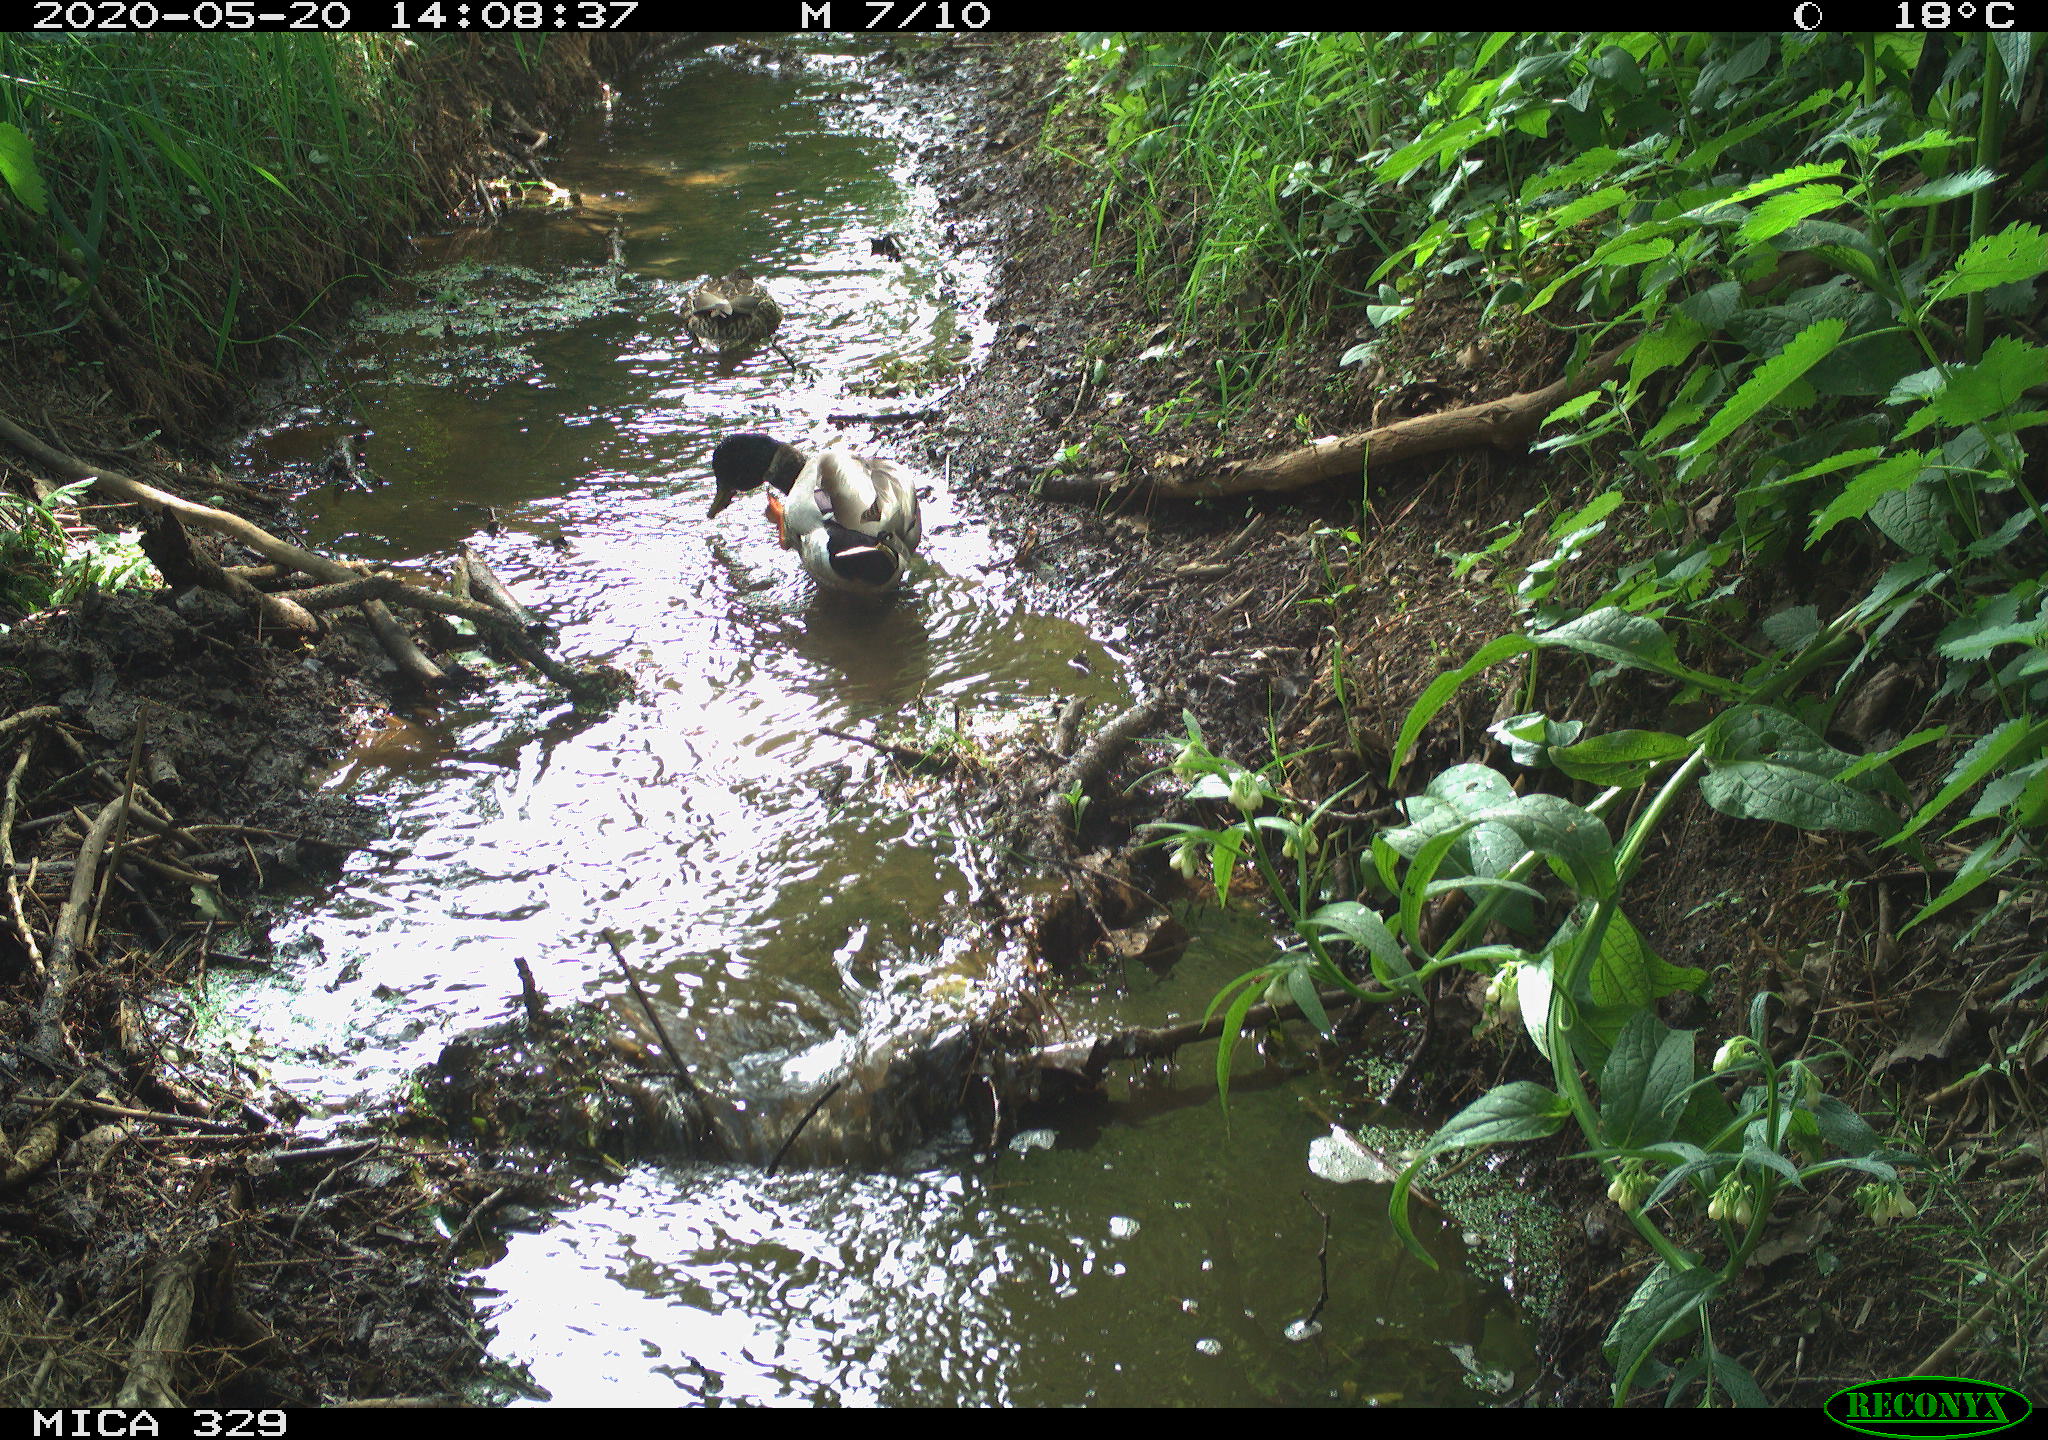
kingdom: Animalia
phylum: Chordata
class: Aves
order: Anseriformes
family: Anatidae
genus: Anas
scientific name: Anas platyrhynchos
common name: Mallard
